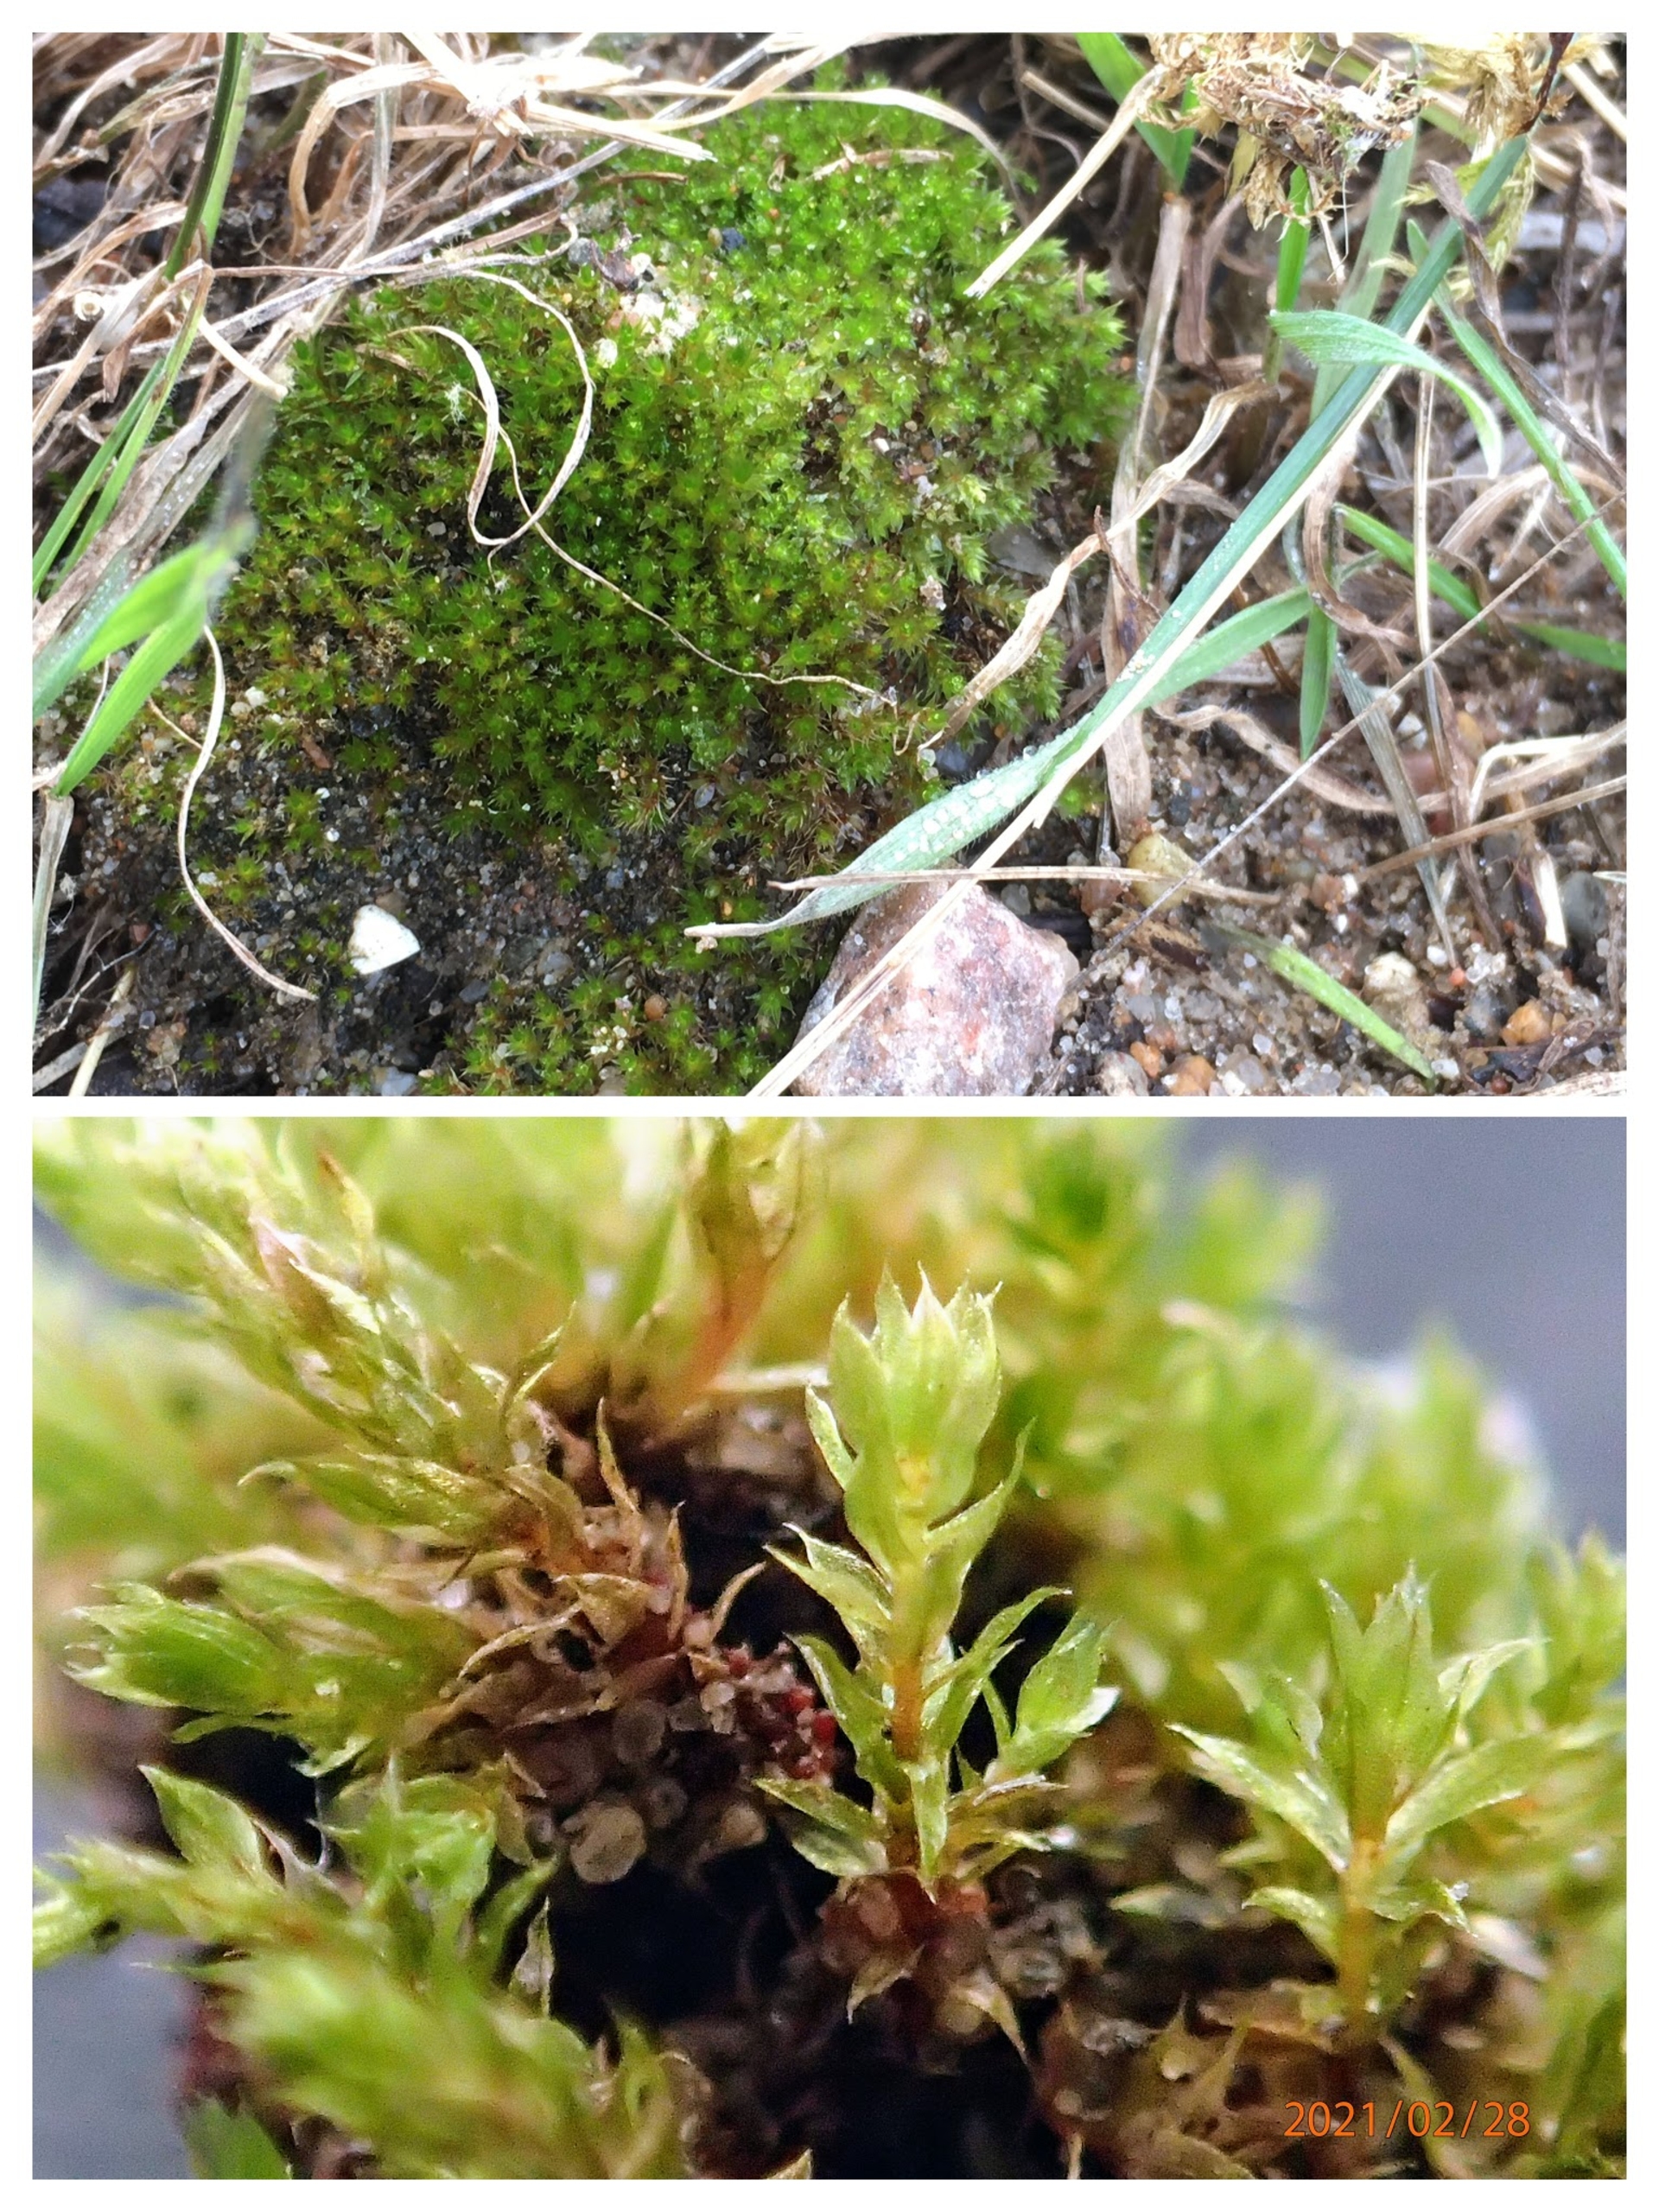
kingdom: Plantae
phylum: Bryophyta
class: Bryopsida
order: Bryales
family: Bryaceae
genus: Rosulabryum
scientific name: Rosulabryum rubens
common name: Mark-bryum
